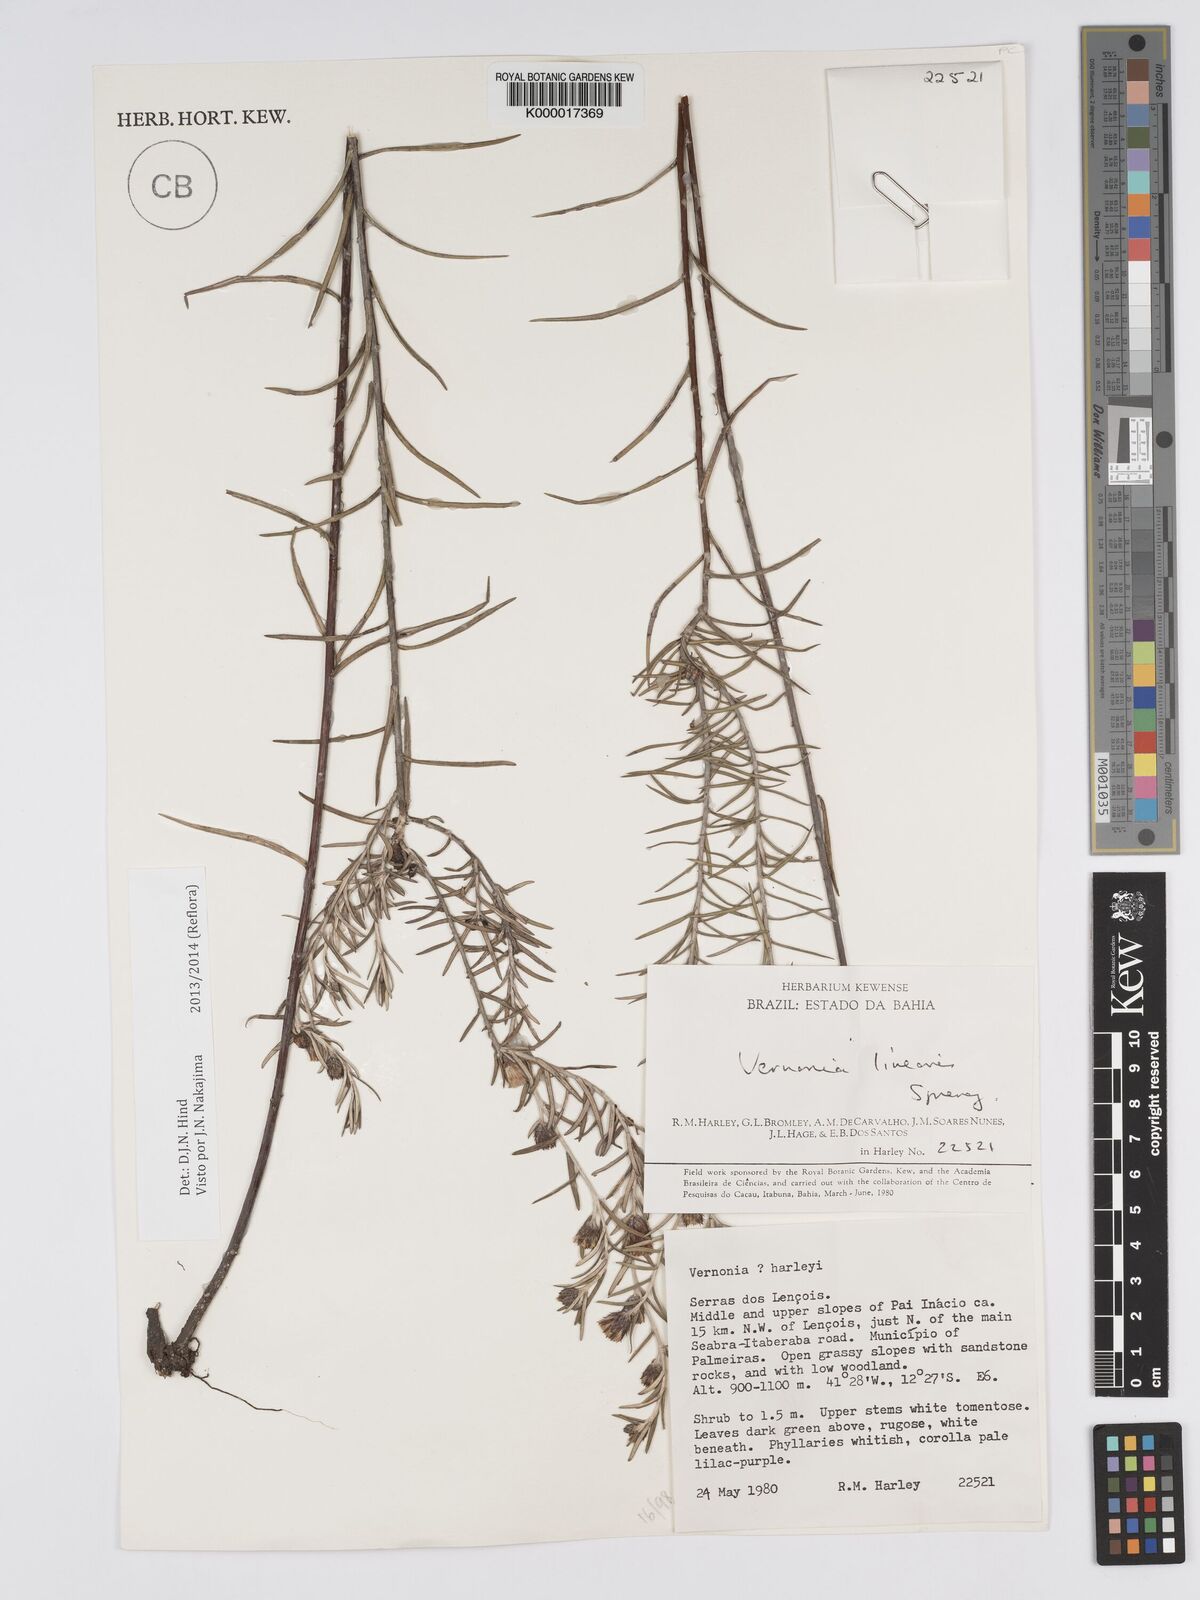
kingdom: Plantae
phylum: Tracheophyta
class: Magnoliopsida
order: Asterales
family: Asteraceae
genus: Lessingianthus
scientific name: Lessingianthus linearis
